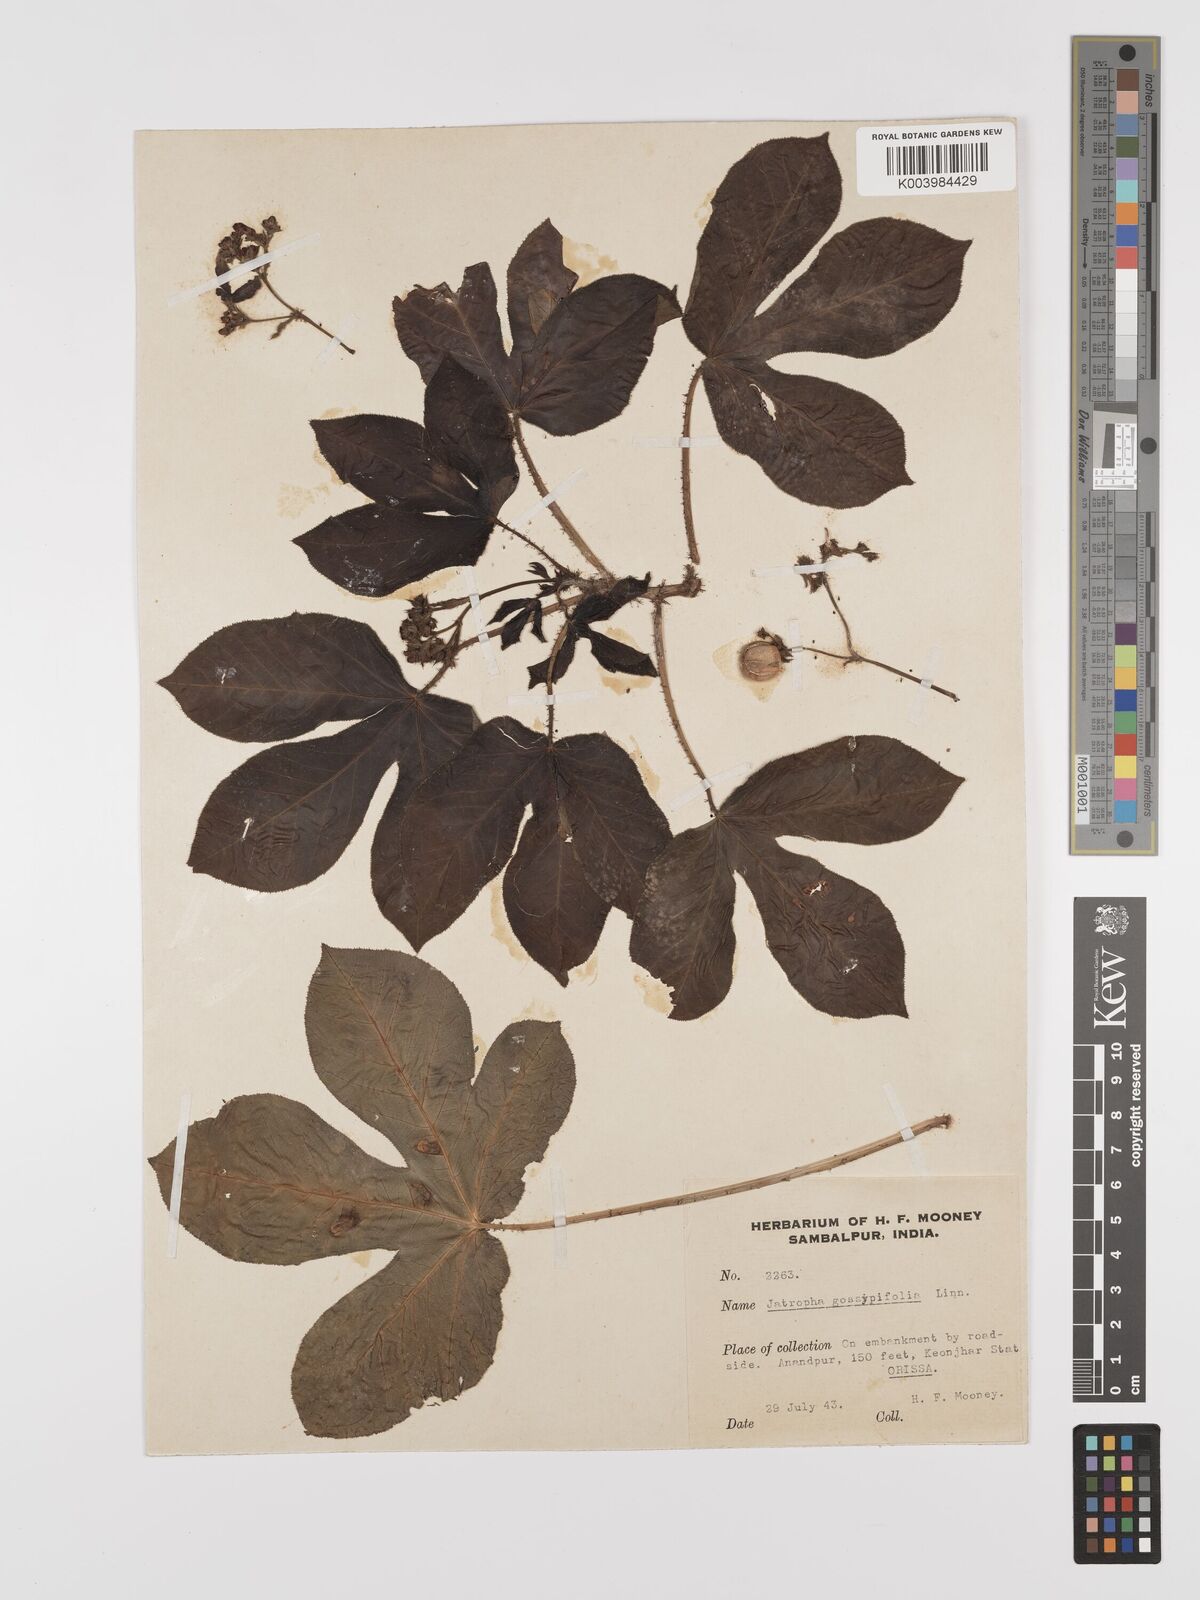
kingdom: Plantae
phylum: Tracheophyta
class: Magnoliopsida
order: Malpighiales
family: Euphorbiaceae
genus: Jatropha
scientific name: Jatropha gossypiifolia
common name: Bellyache bush
